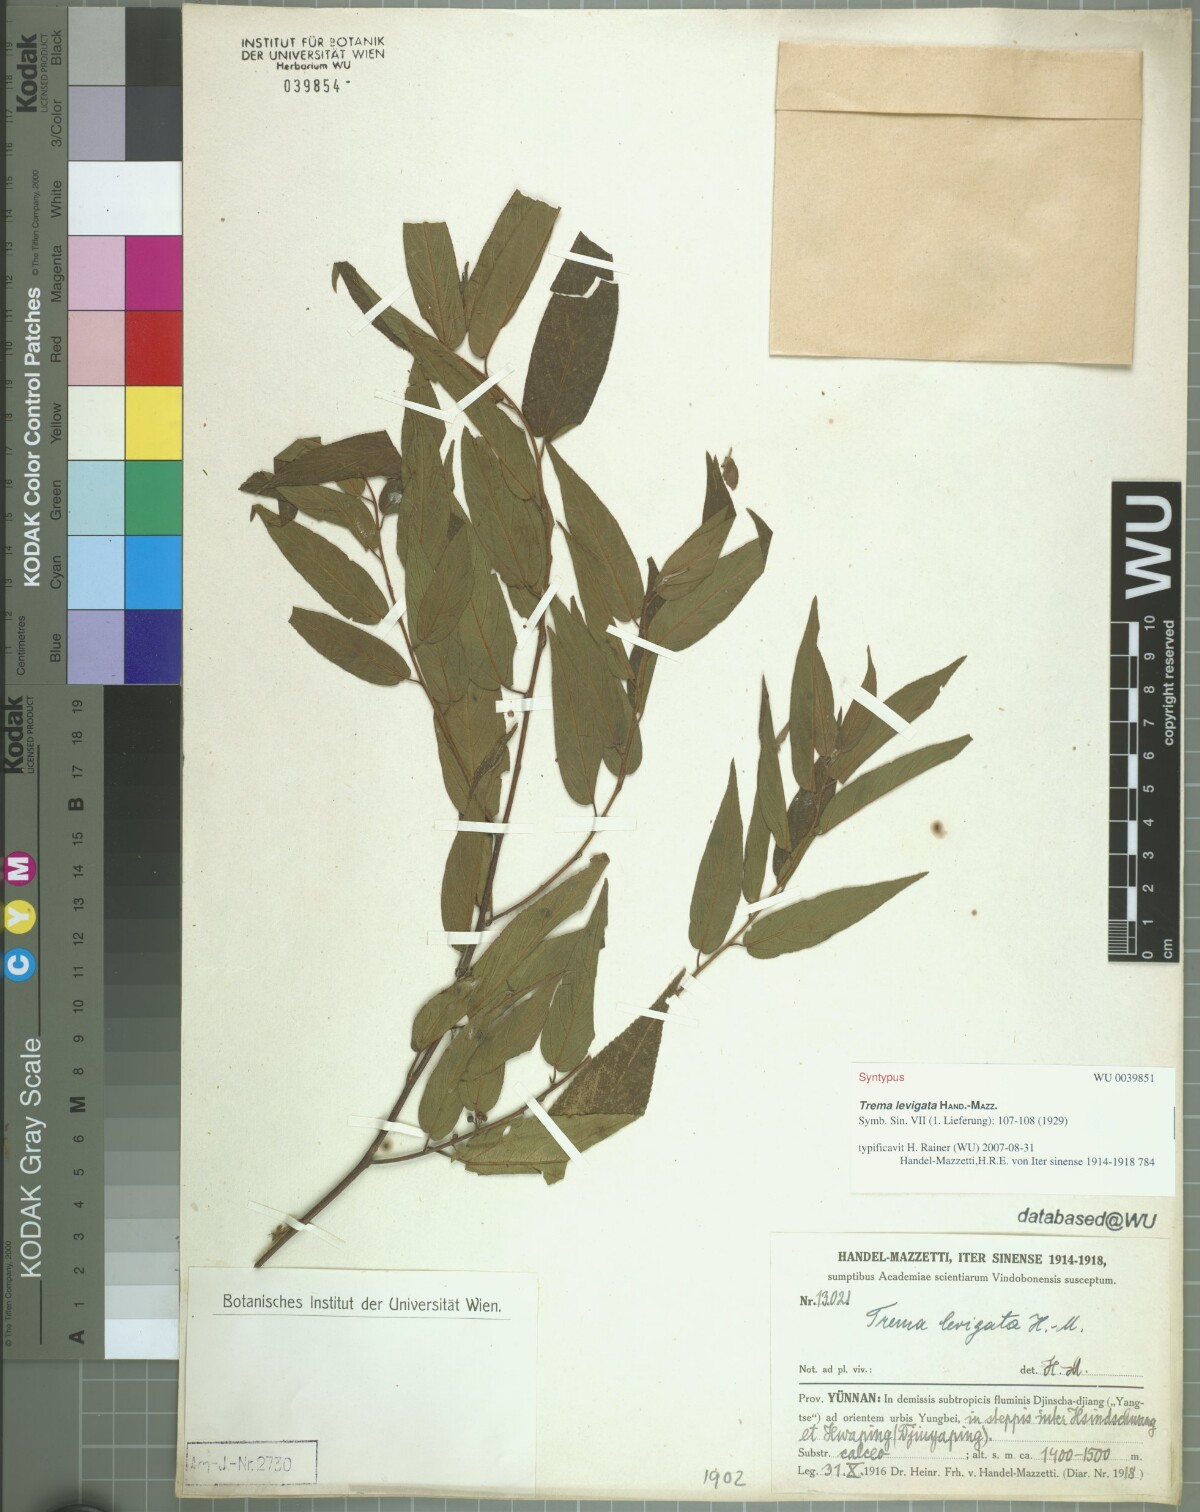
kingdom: Plantae
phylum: Tracheophyta
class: Magnoliopsida
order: Rosales
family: Cannabaceae
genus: Trema
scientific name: Trema levigatum
